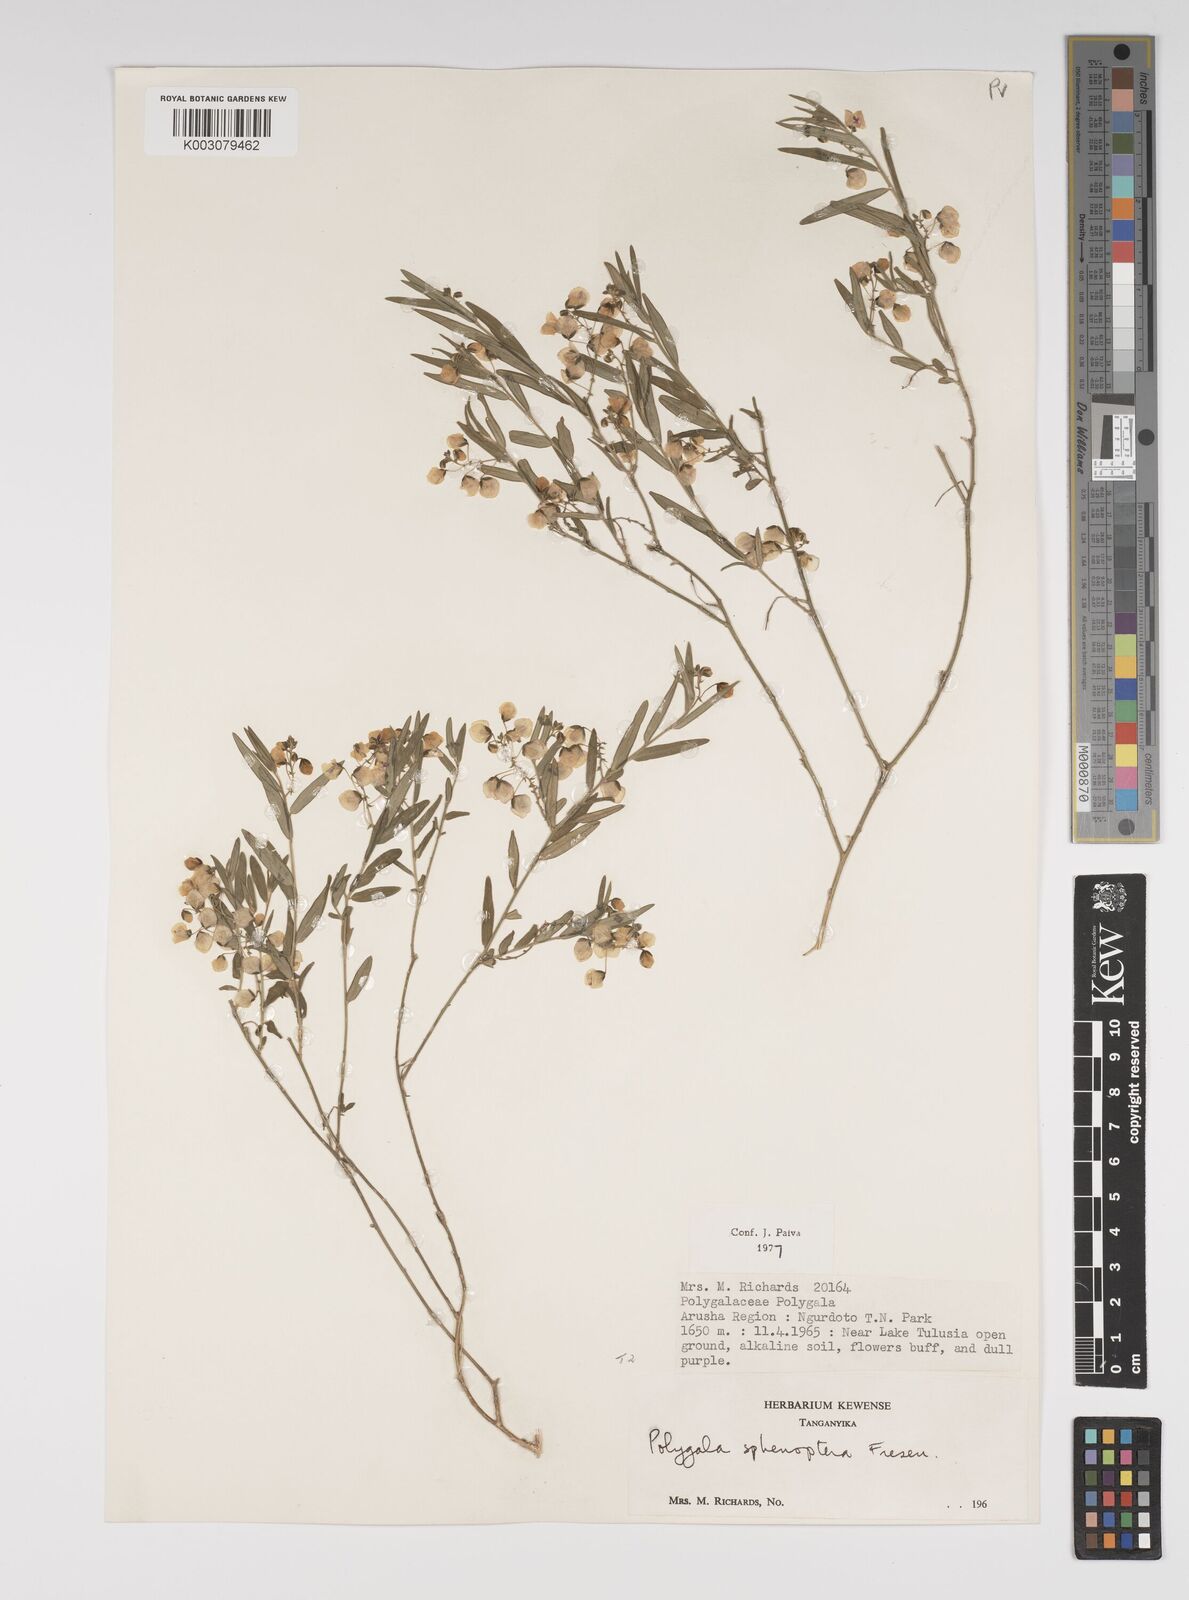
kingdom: Plantae
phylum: Tracheophyta
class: Magnoliopsida
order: Fabales
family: Polygalaceae
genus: Polygala
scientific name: Polygala sphenoptera
